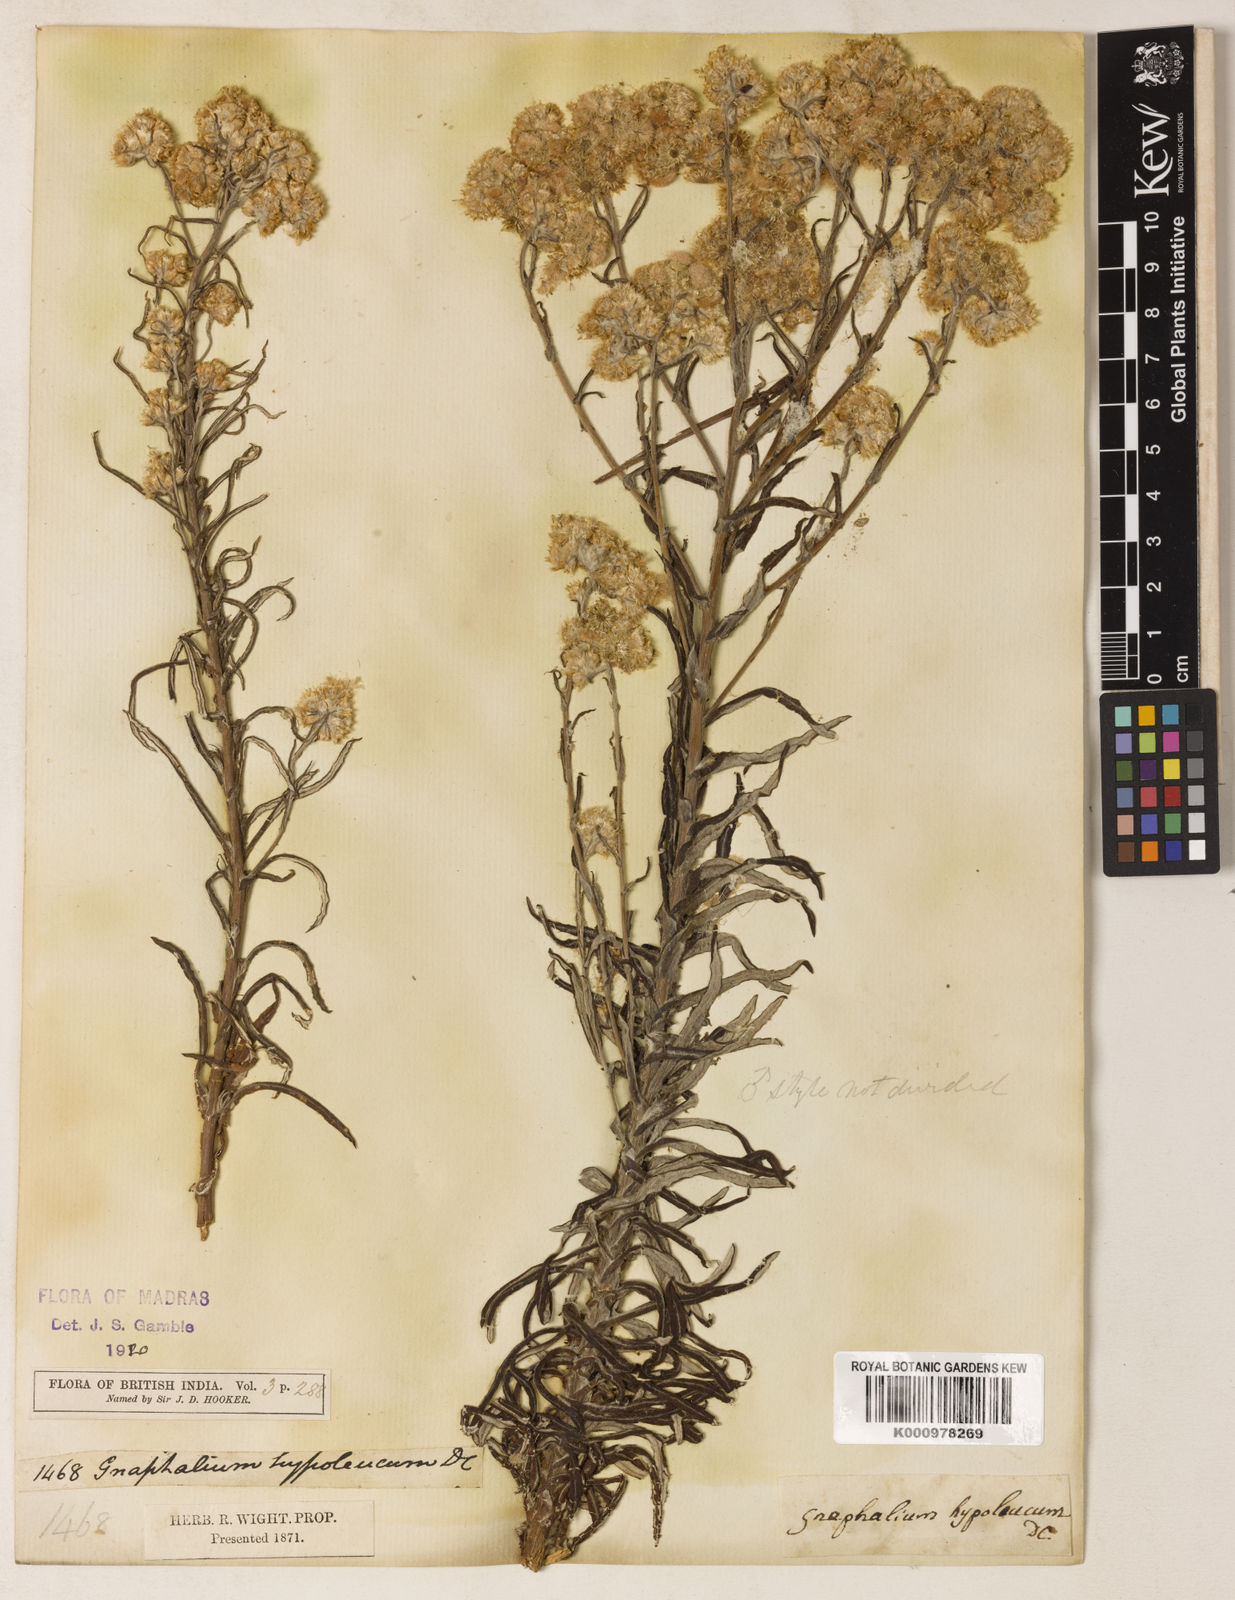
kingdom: Plantae
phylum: Tracheophyta
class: Magnoliopsida
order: Asterales
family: Asteraceae
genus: Pseudognaphalium
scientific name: Pseudognaphalium hypoleucum
